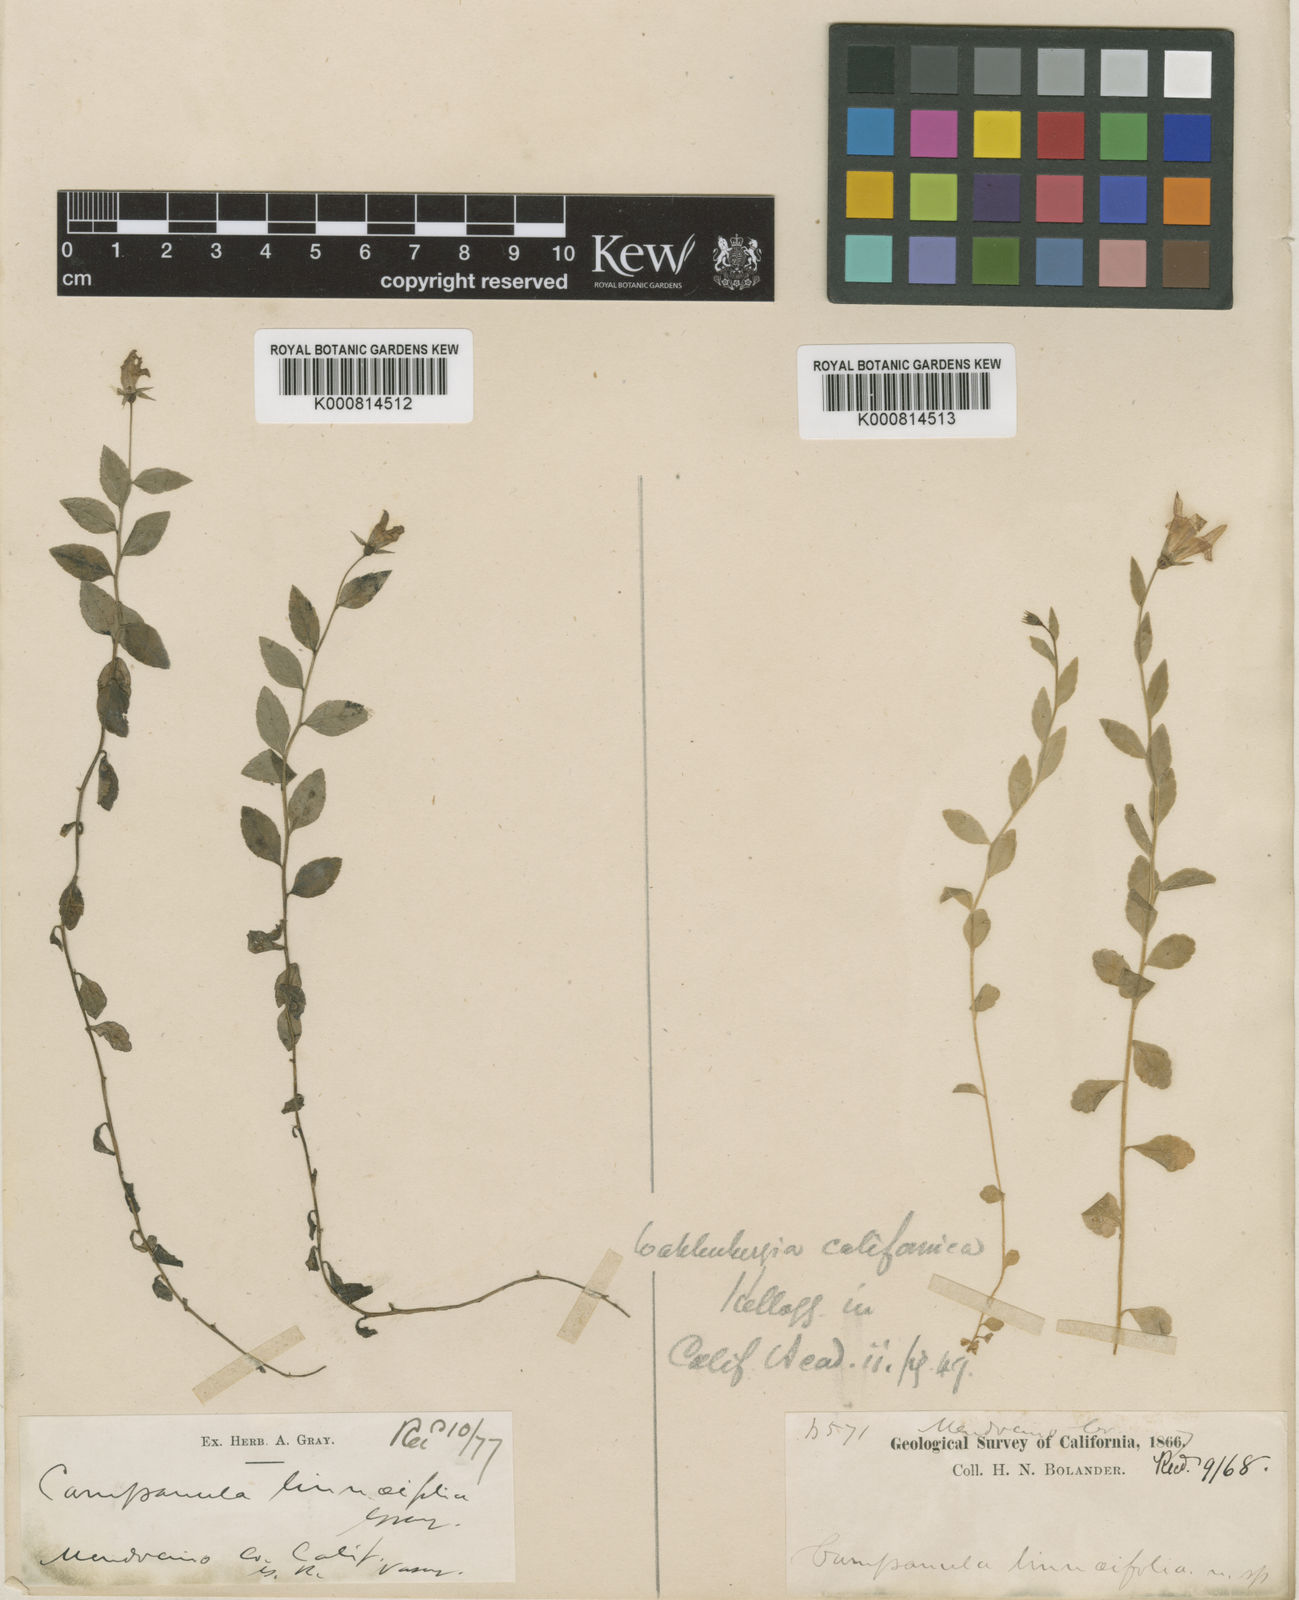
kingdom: Plantae
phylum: Tracheophyta
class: Magnoliopsida
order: Asterales
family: Campanulaceae
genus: Eastwoodiella
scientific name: Eastwoodiella californica
